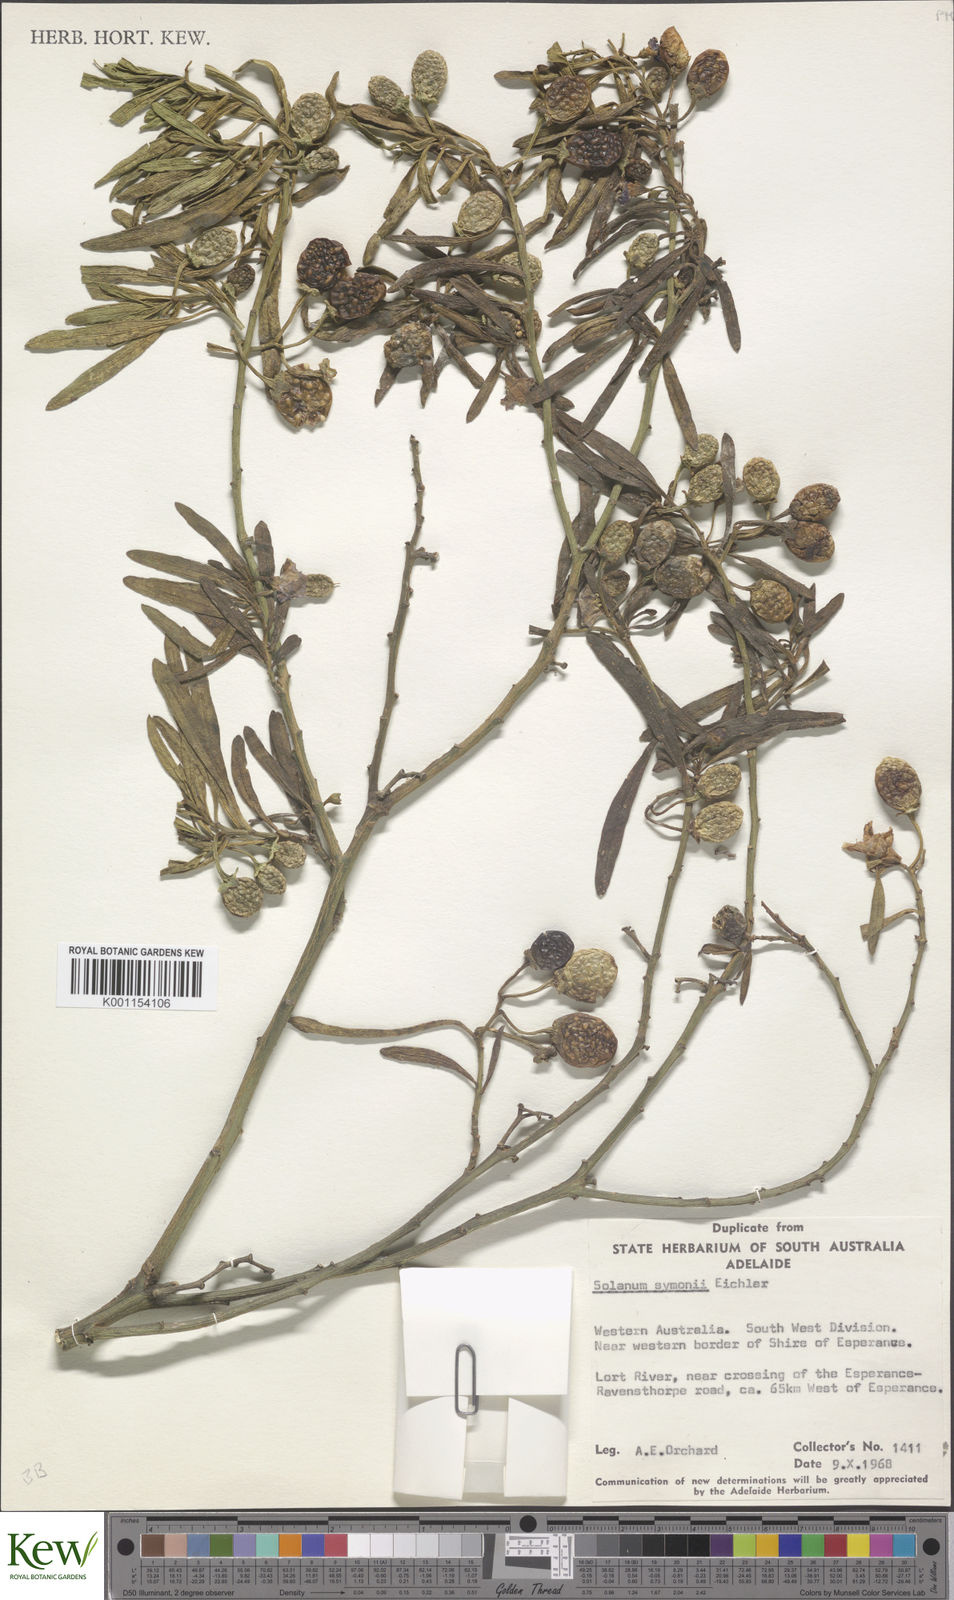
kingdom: Plantae
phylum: Tracheophyta
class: Magnoliopsida
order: Solanales
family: Solanaceae
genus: Solanum
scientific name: Solanum symonii
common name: South australian kangaroo-apple
